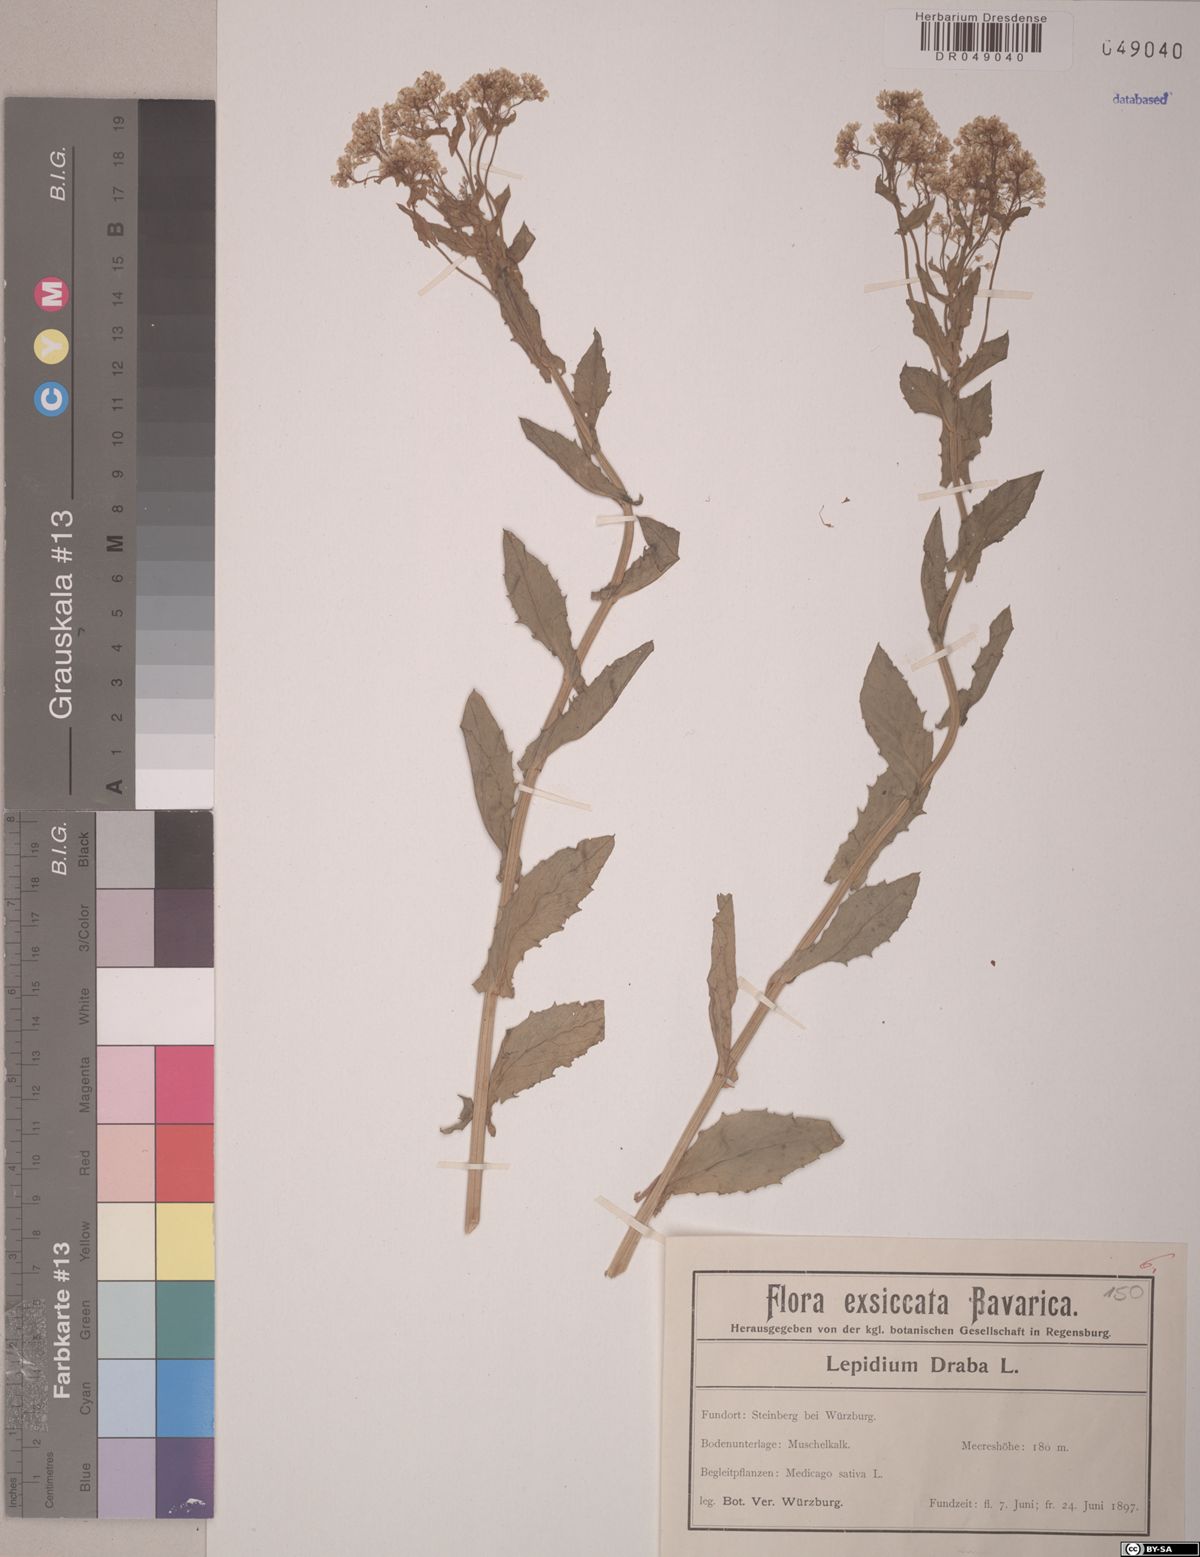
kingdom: Plantae
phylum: Tracheophyta
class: Magnoliopsida
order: Brassicales
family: Brassicaceae
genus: Lepidium
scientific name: Lepidium draba
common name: Hoary cress
